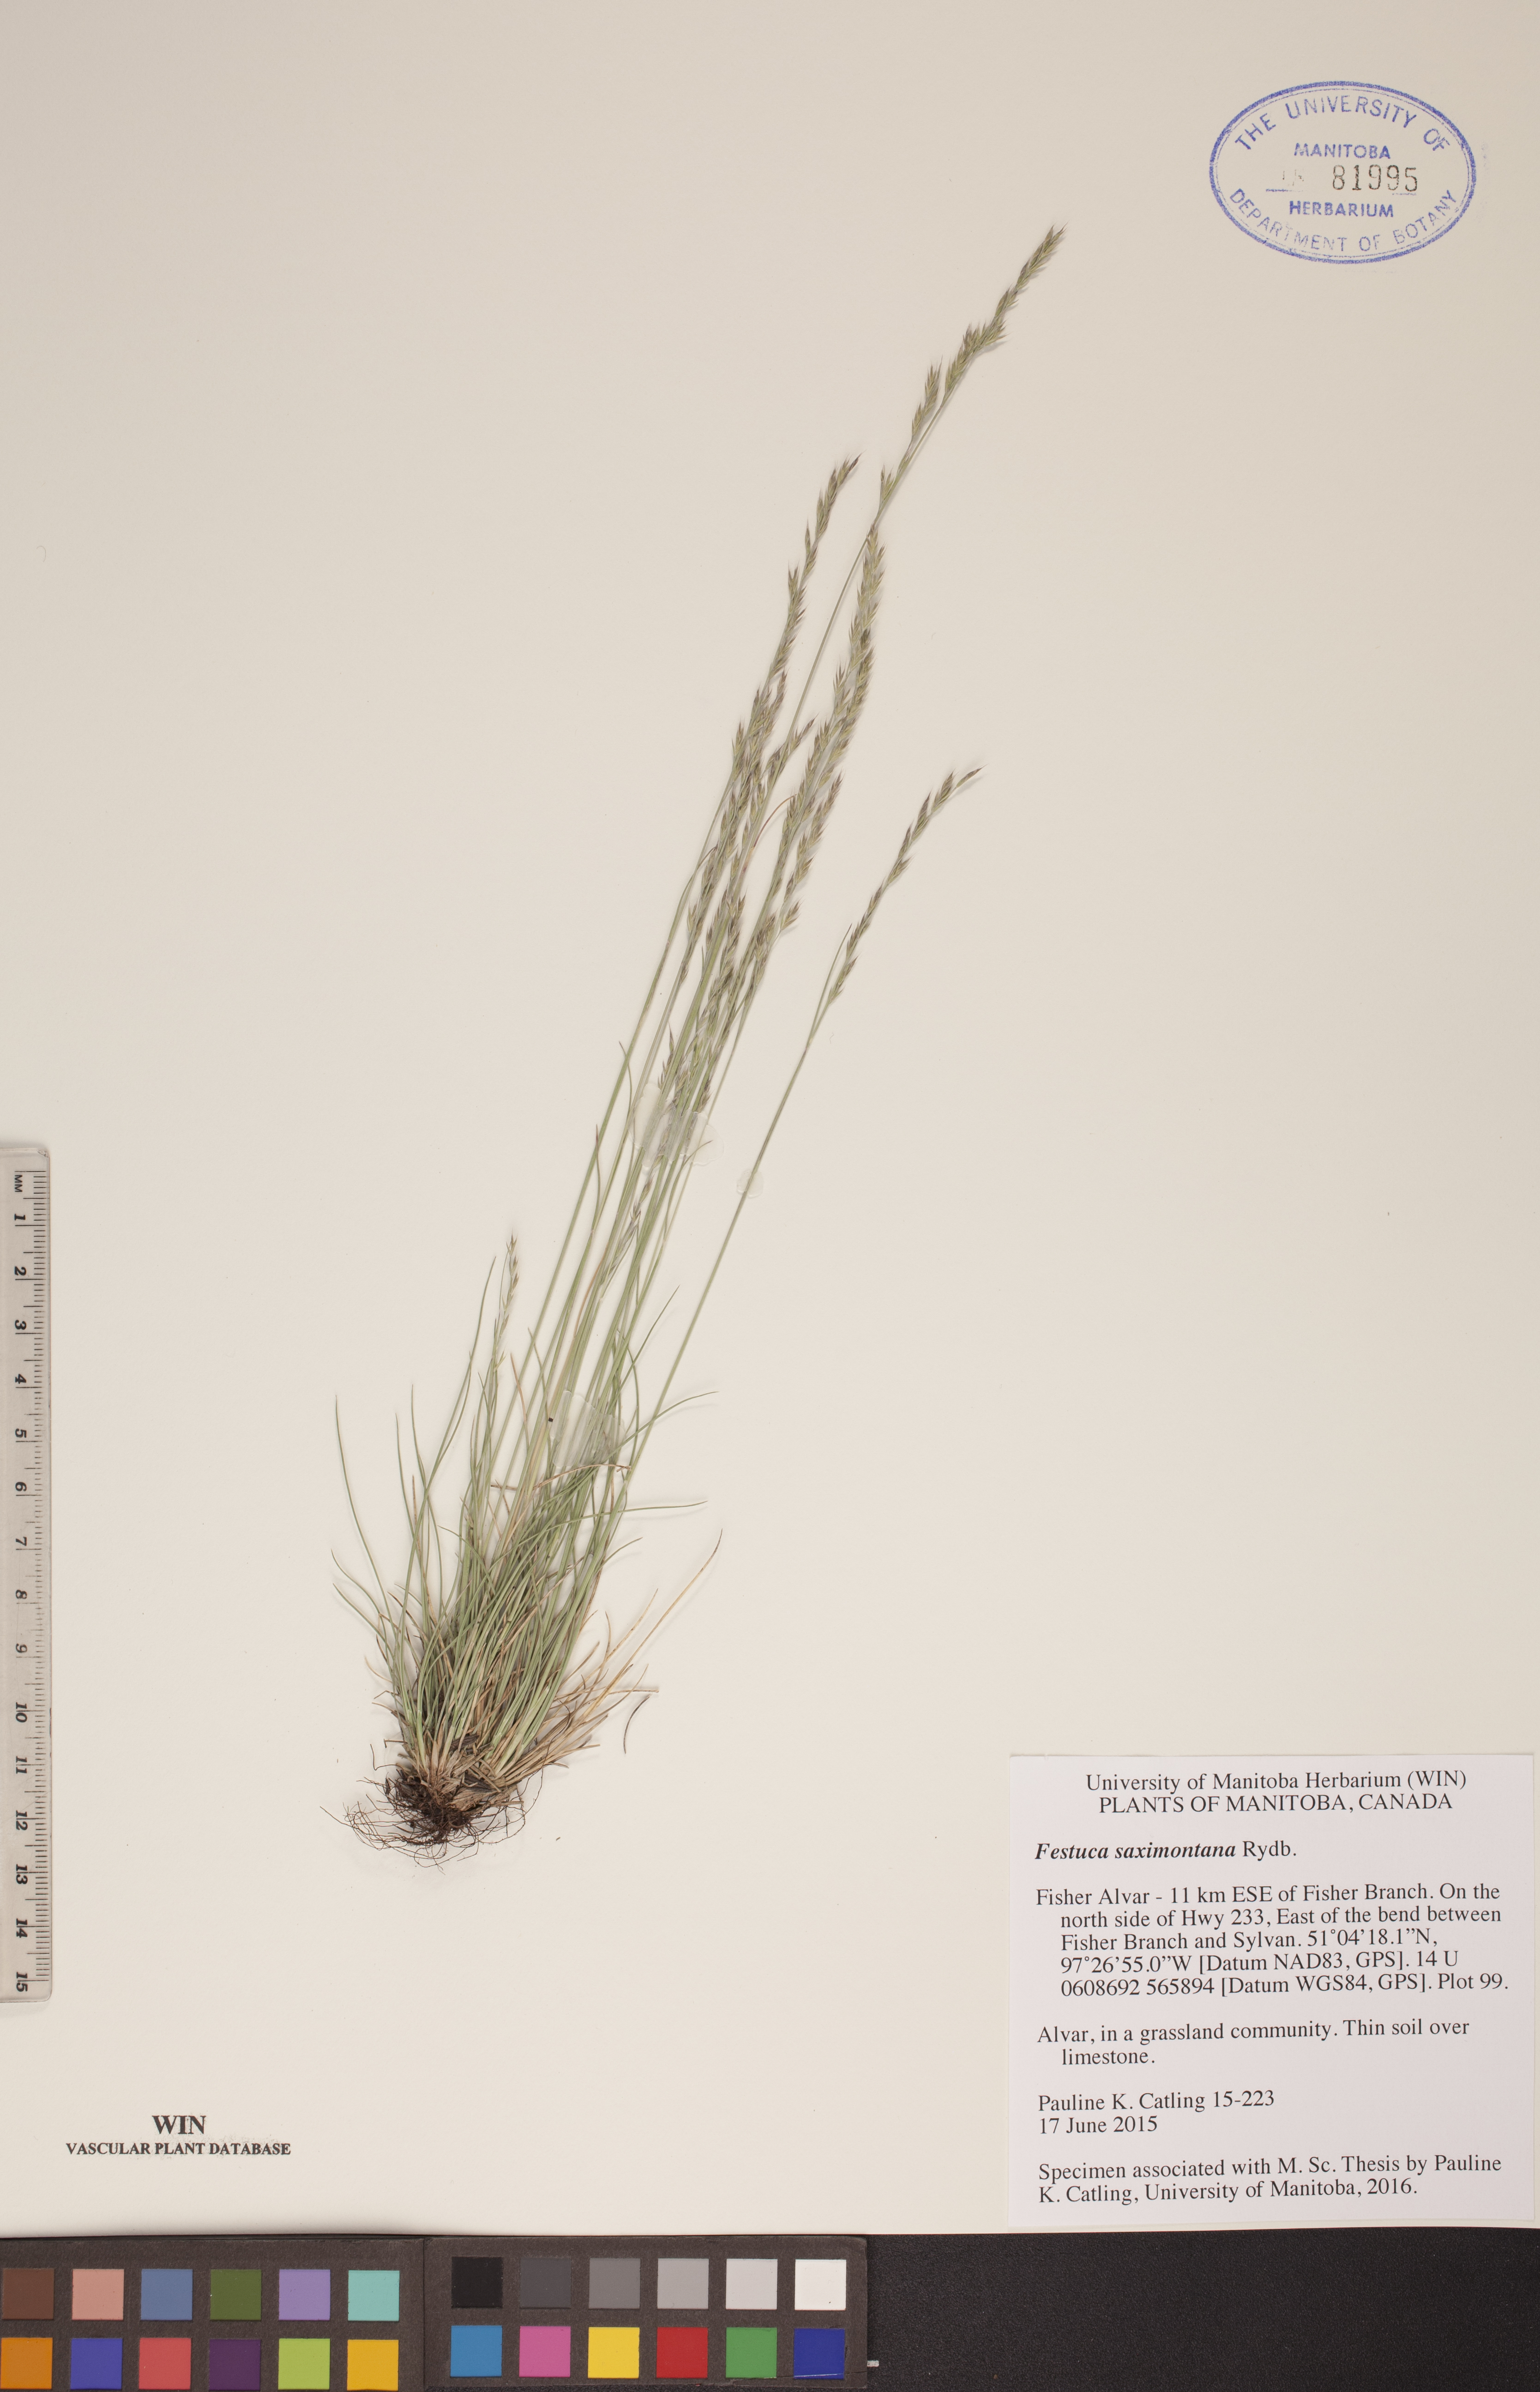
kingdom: Plantae
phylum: Tracheophyta
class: Liliopsida
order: Poales
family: Poaceae
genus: Festuca
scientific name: Festuca saximontana
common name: Mountain fescue
